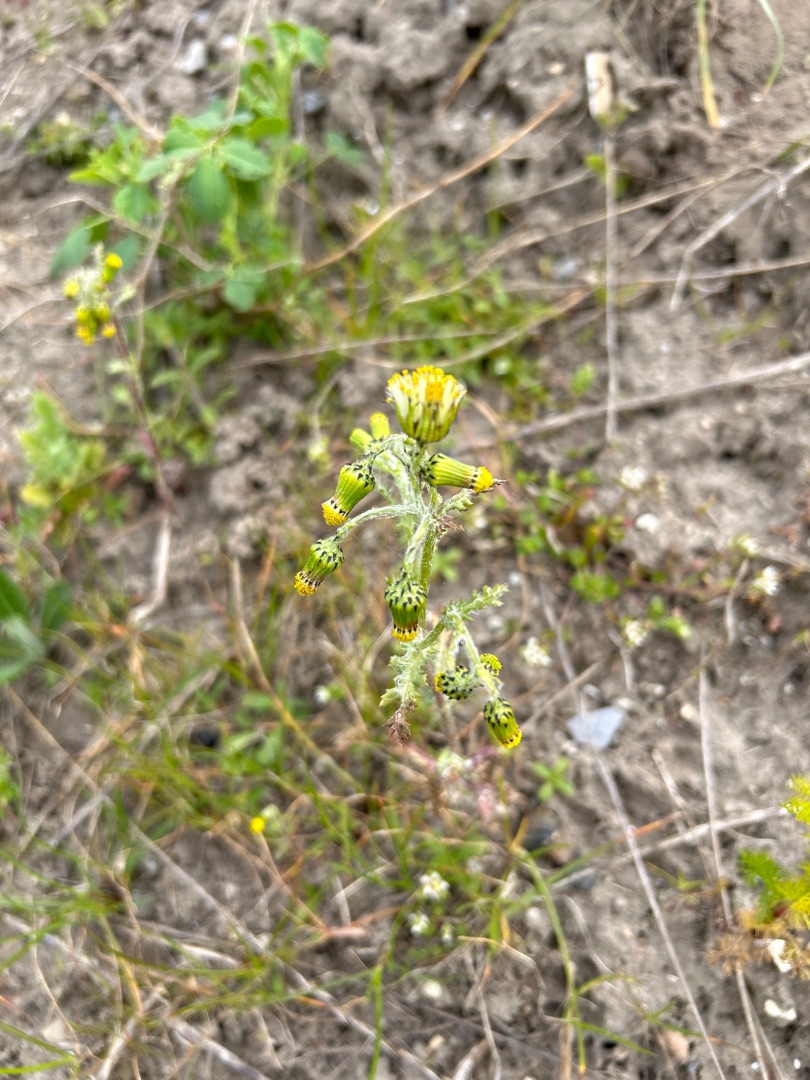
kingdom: Plantae
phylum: Tracheophyta
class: Magnoliopsida
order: Asterales
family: Asteraceae
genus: Senecio
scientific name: Senecio vulgaris
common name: Almindelig brandbæger
